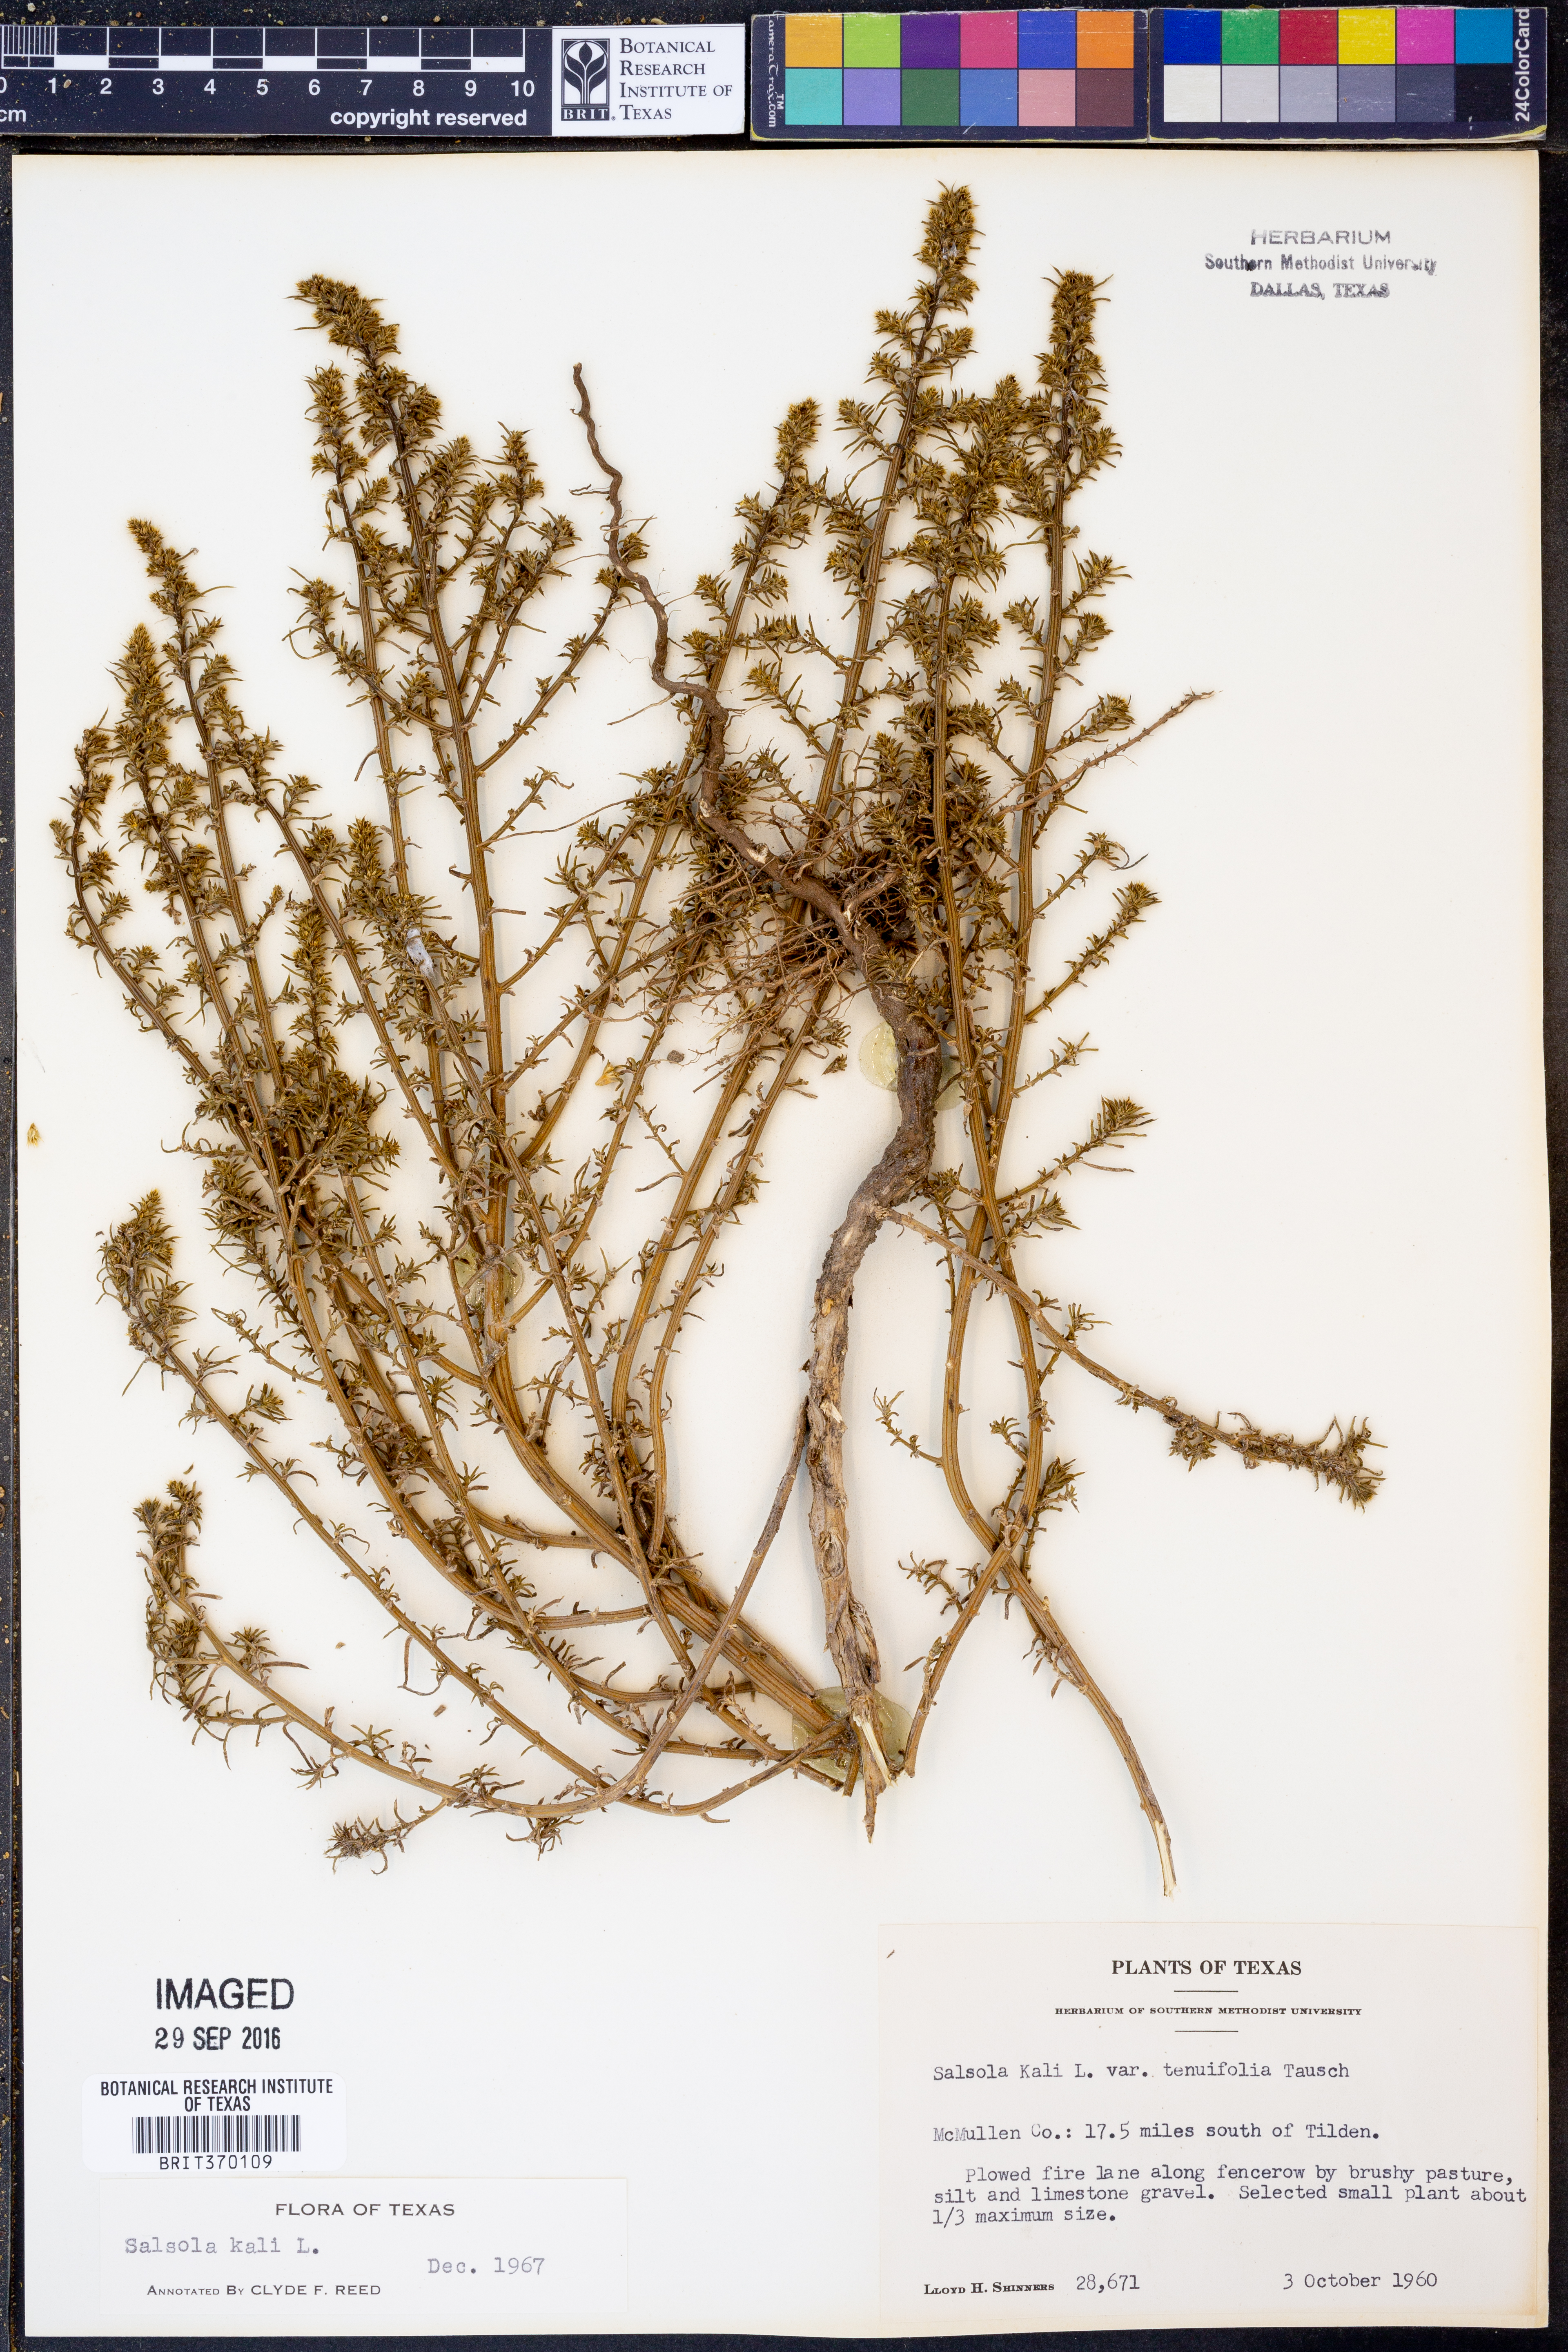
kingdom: Plantae
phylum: Tracheophyta
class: Magnoliopsida
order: Caryophyllales
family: Amaranthaceae
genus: Salsola
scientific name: Salsola kali
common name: Saltwort
